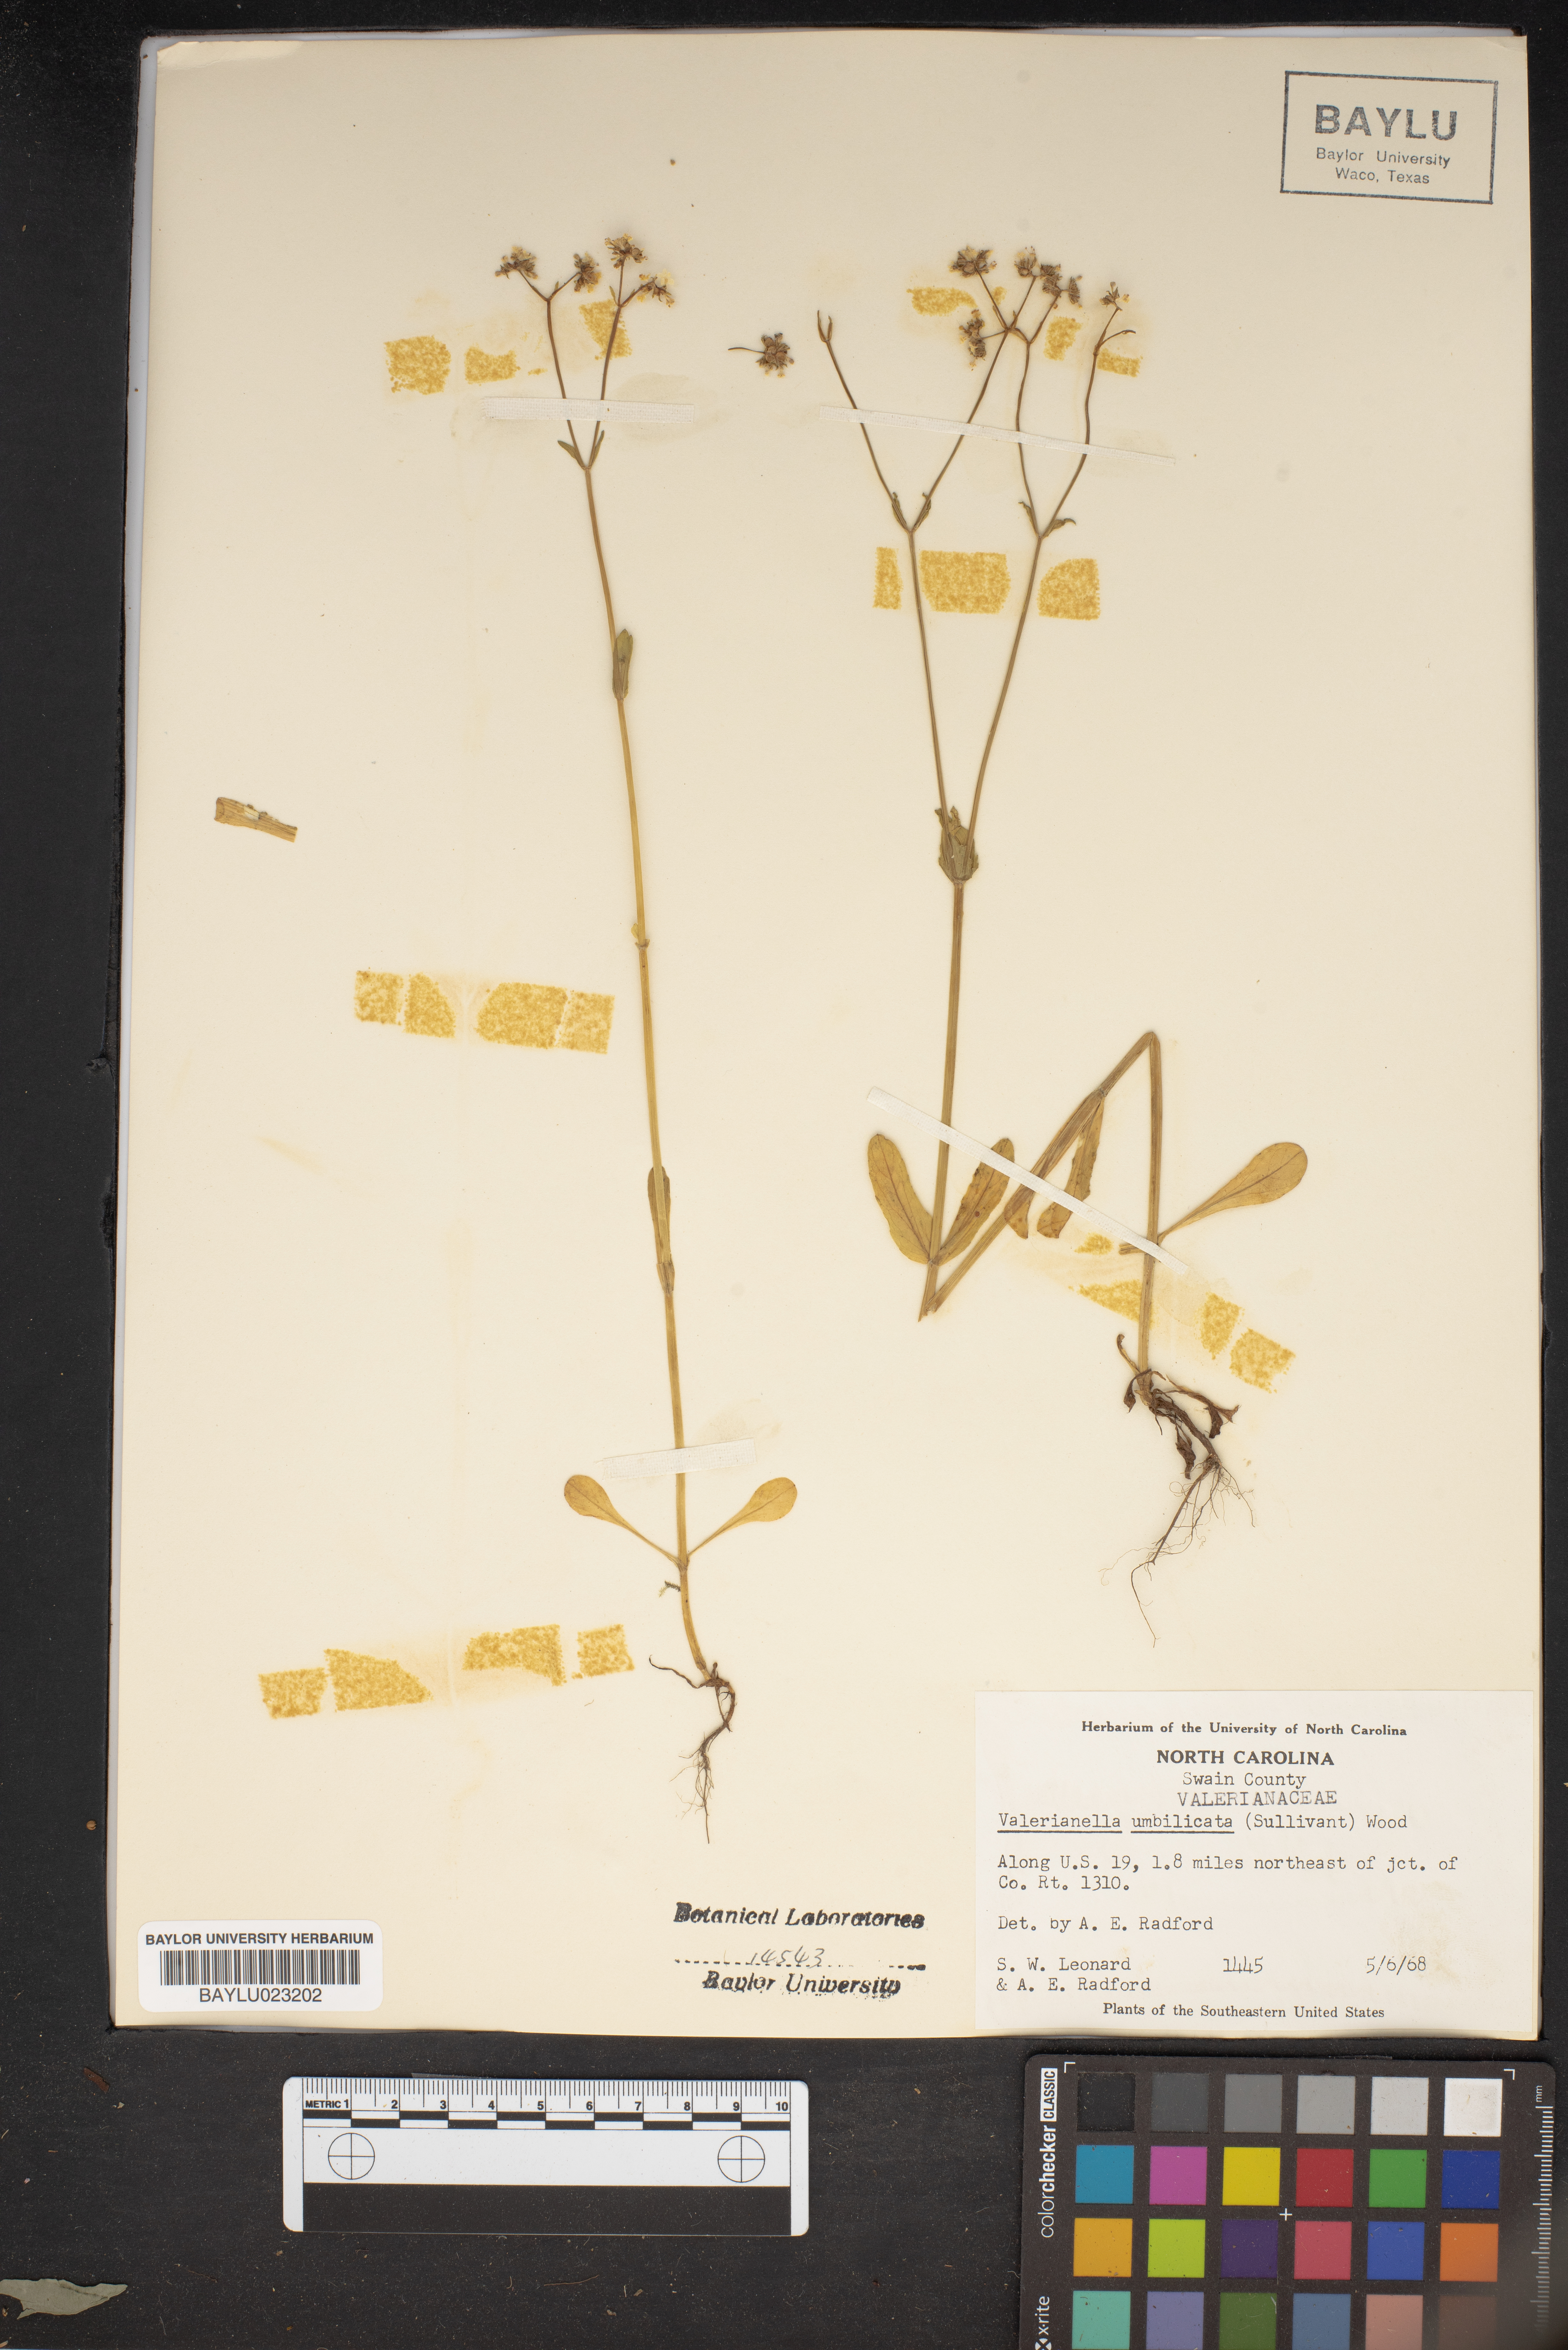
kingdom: Plantae
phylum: Tracheophyta
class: Magnoliopsida
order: Dipsacales
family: Caprifoliaceae
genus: Valerianella
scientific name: Valerianella umbilicata
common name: Wood's cornsalad
